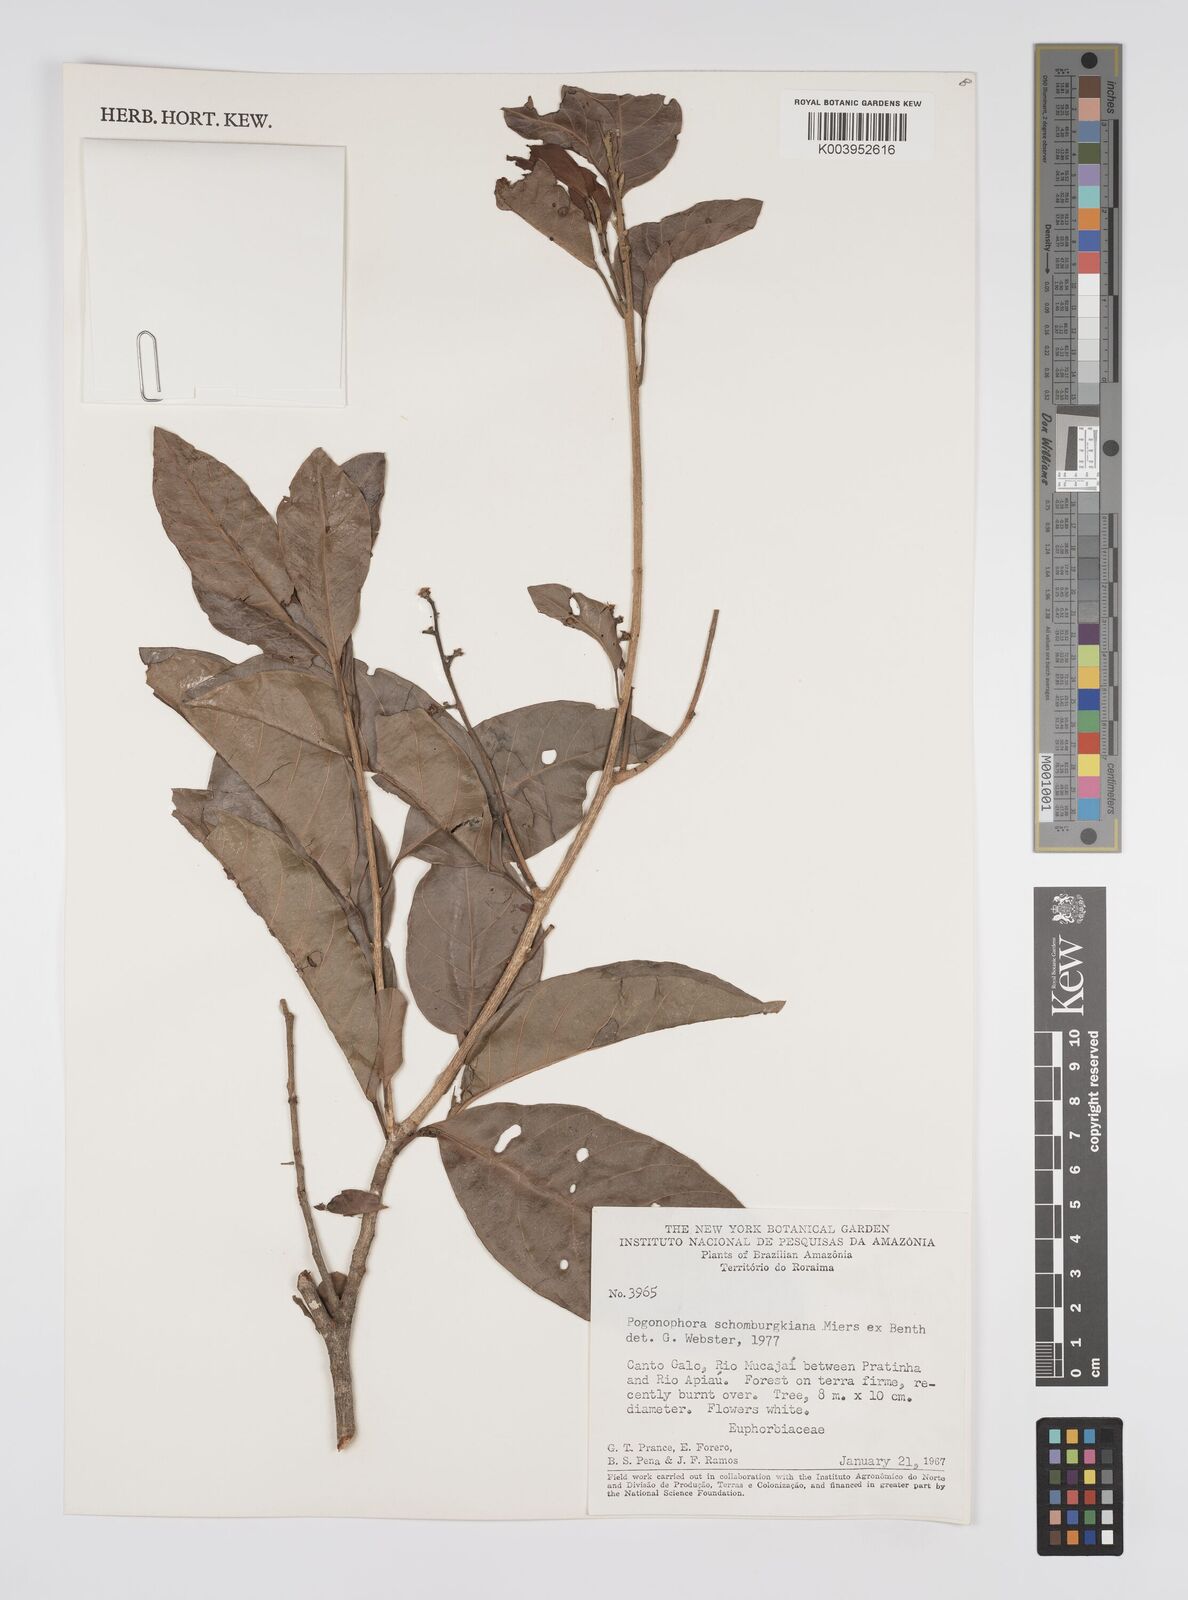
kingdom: Plantae
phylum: Tracheophyta
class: Magnoliopsida
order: Malpighiales
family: Peraceae
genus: Pogonophora
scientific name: Pogonophora schomburgkiana
